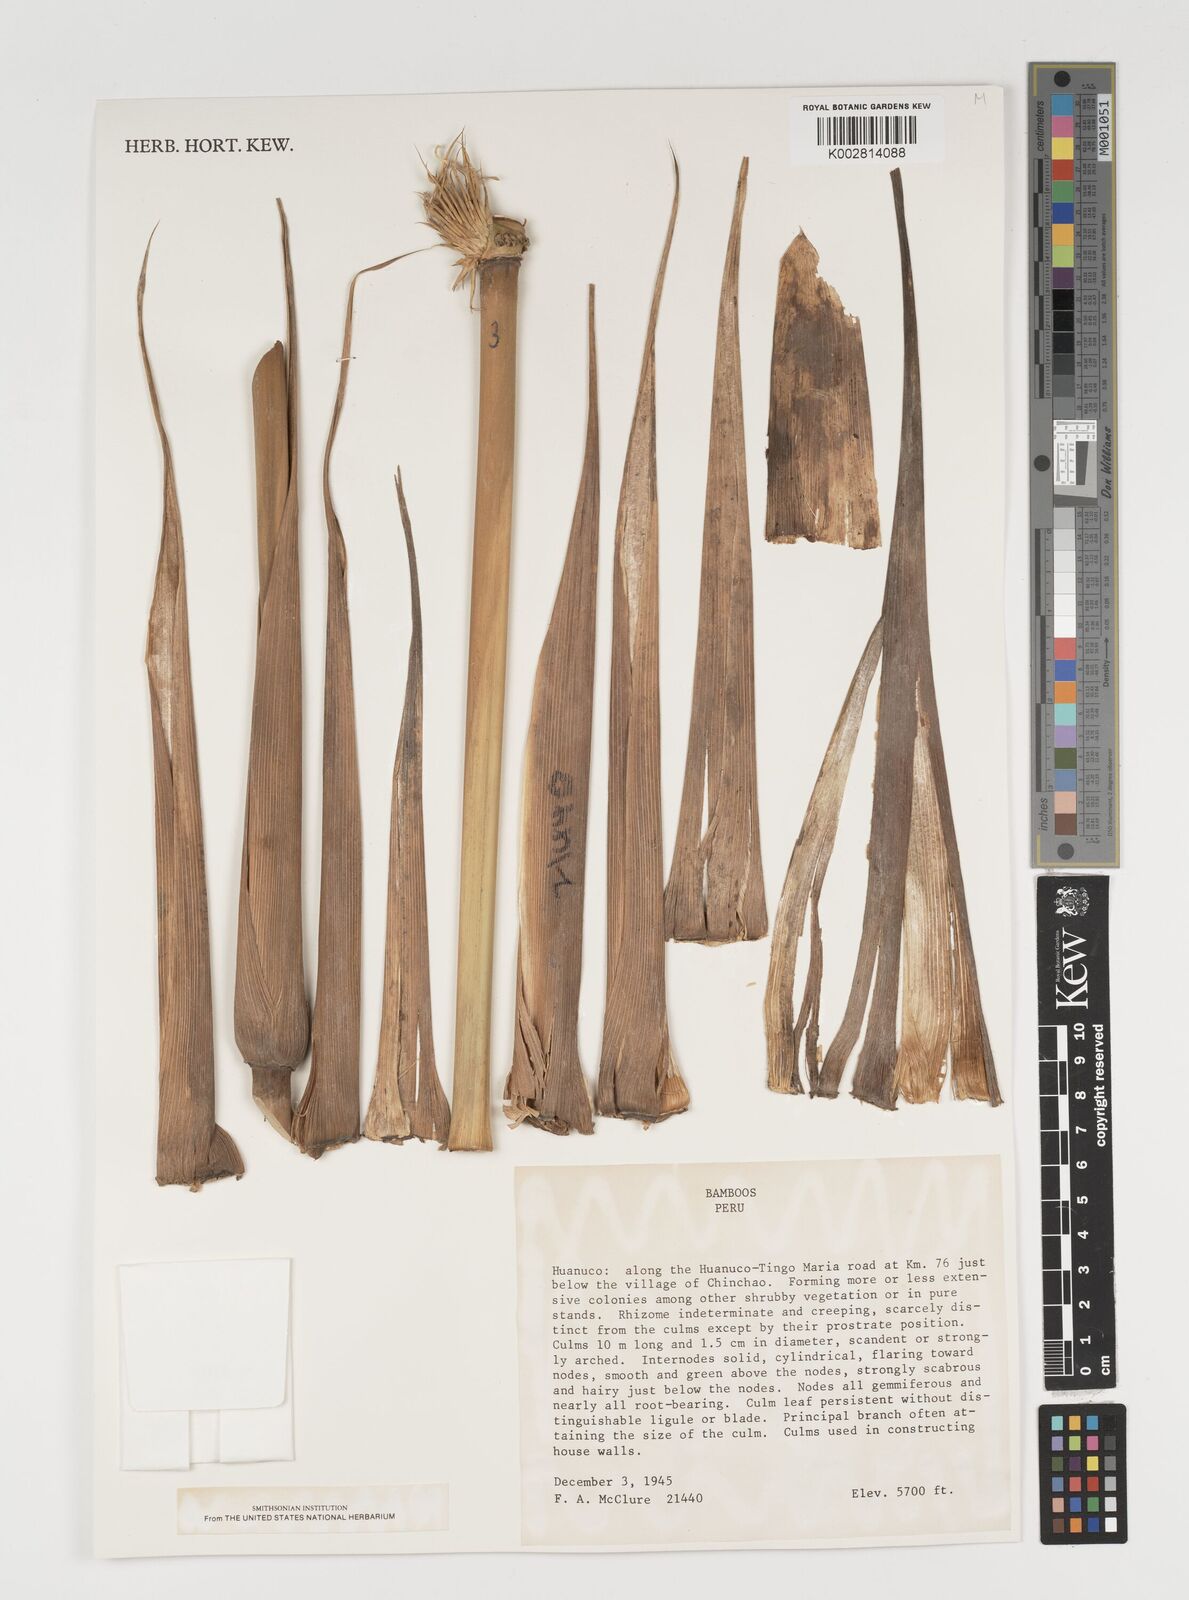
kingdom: Plantae
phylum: Tracheophyta
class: Liliopsida
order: Poales
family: Poaceae
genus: Chusquea
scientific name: Chusquea
